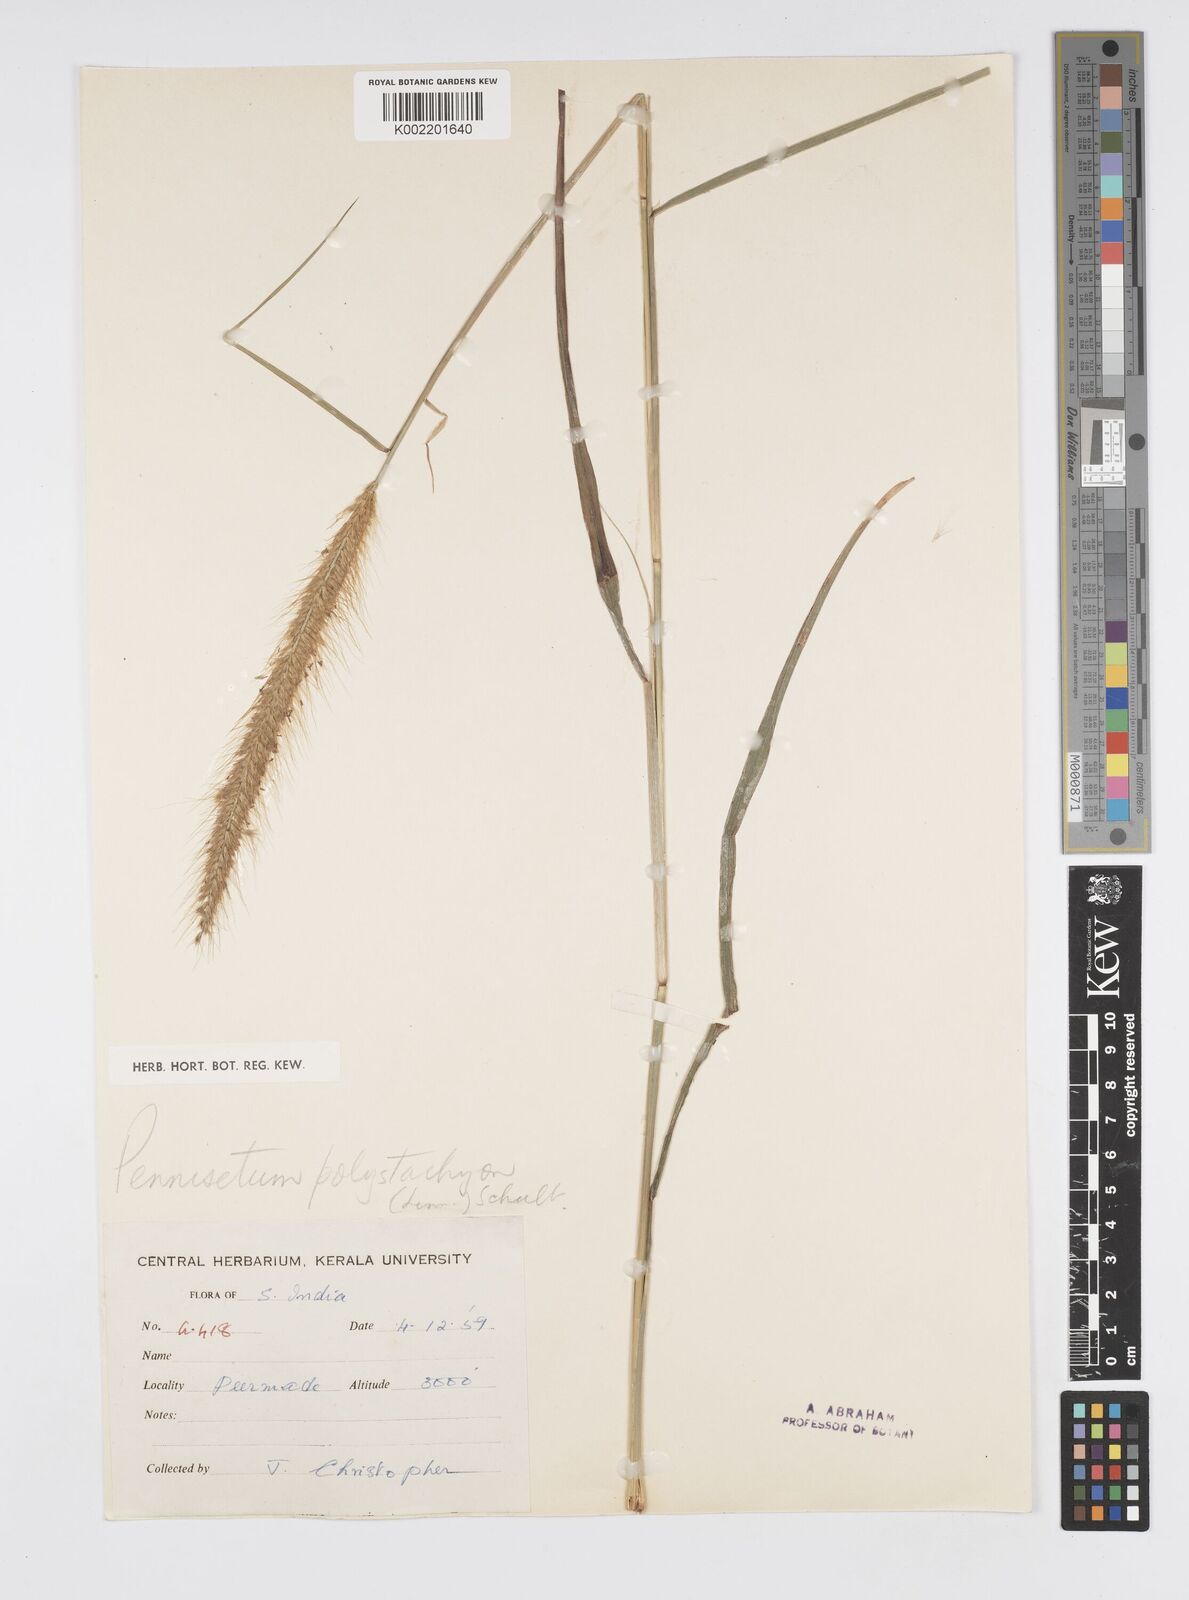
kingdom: Plantae
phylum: Tracheophyta
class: Liliopsida
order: Poales
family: Poaceae
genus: Setaria
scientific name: Setaria parviflora
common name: Knotroot bristle-grass
